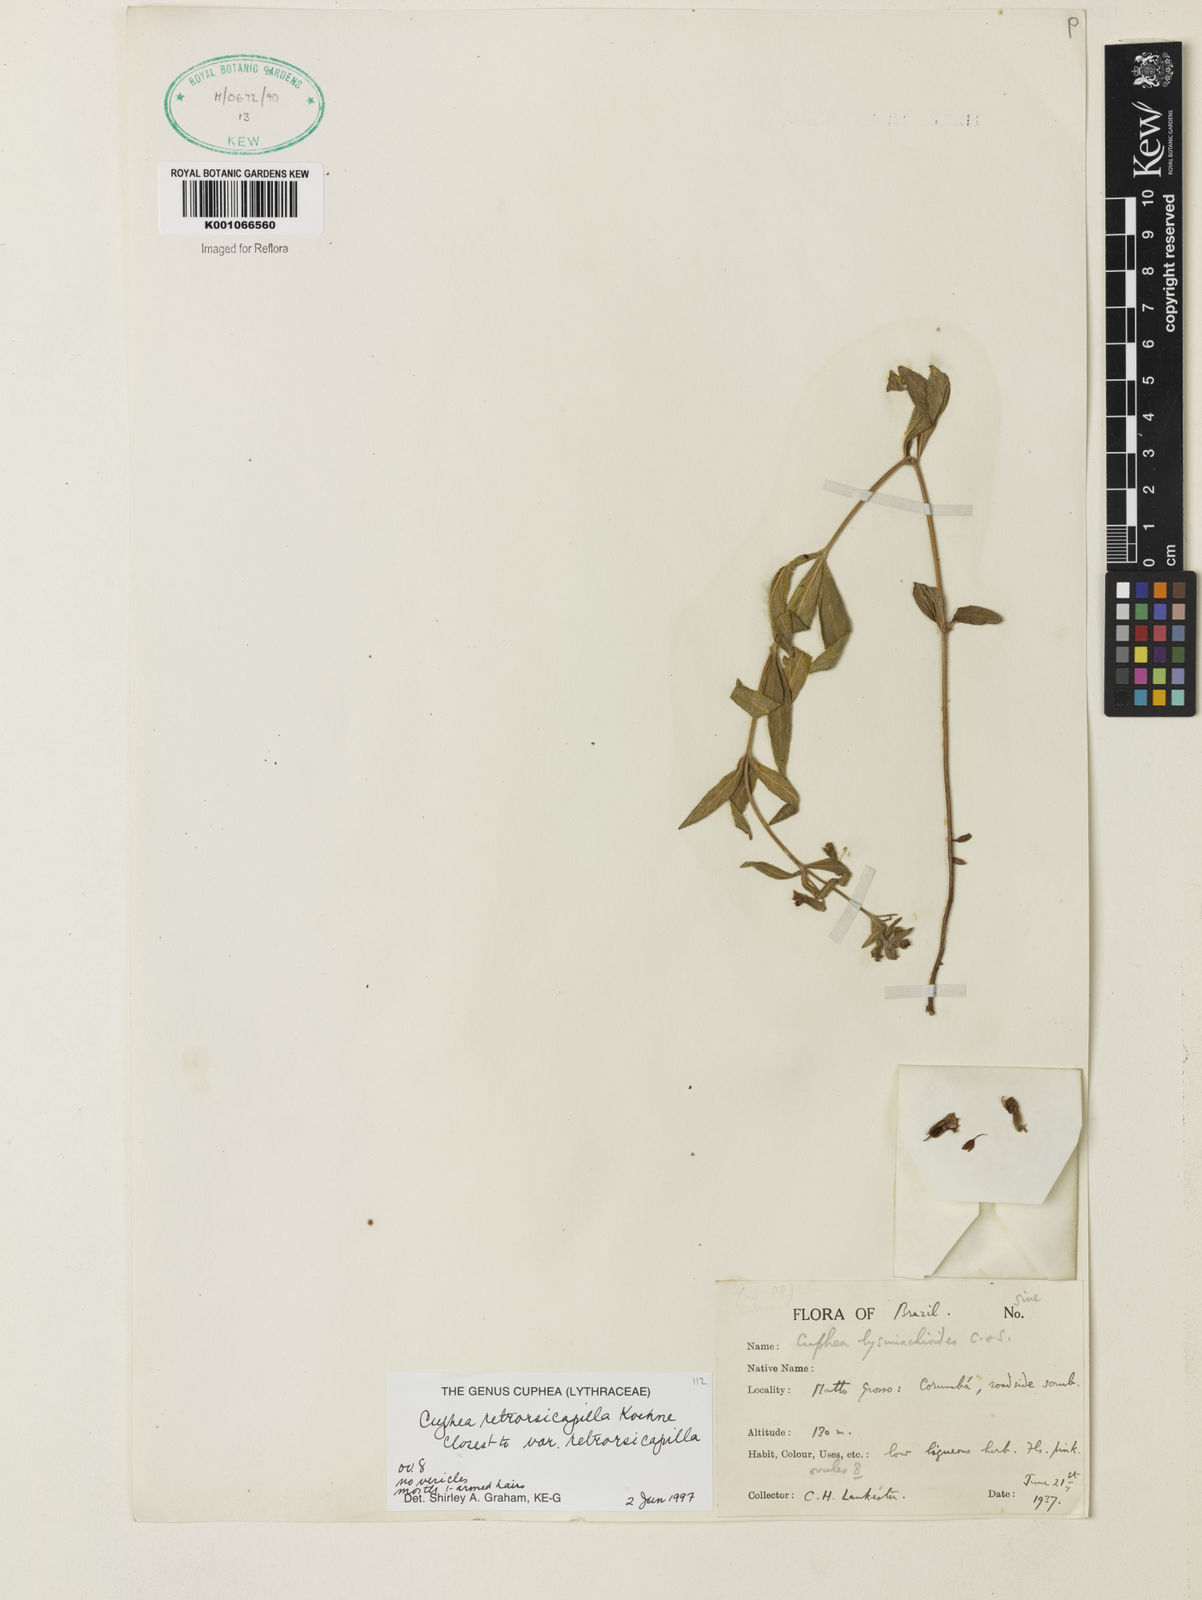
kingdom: Plantae
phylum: Tracheophyta
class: Magnoliopsida
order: Myrtales
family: Lythraceae
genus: Cuphea
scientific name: Cuphea retrorsicapilla
